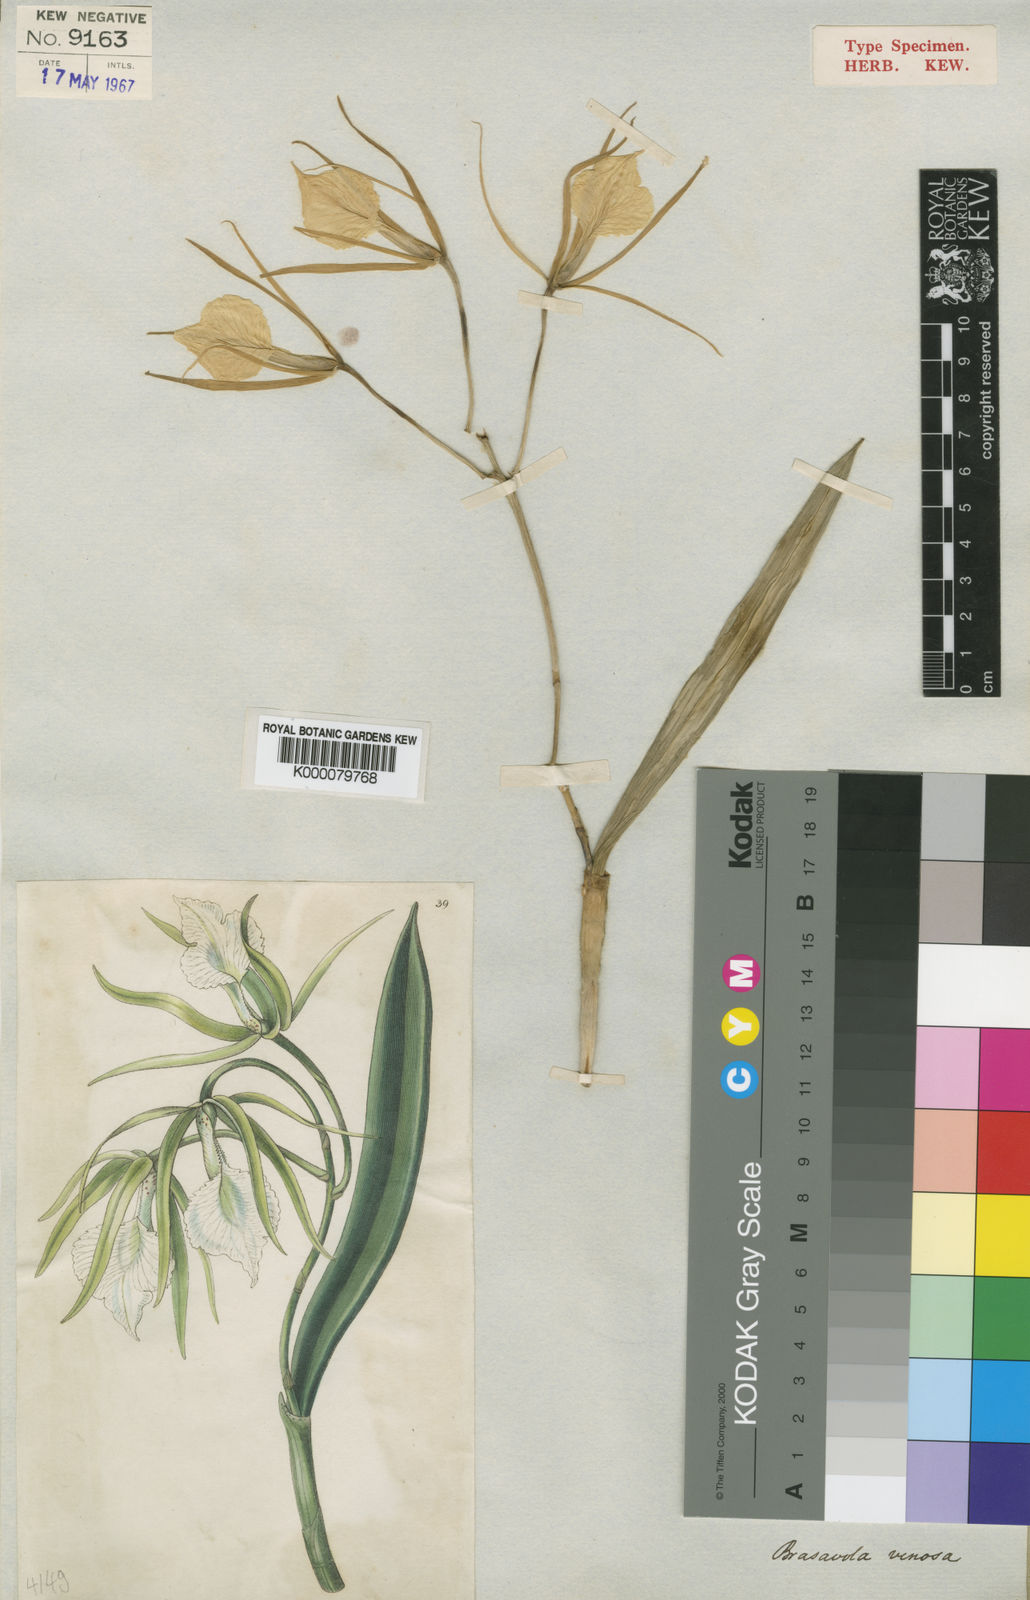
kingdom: Plantae
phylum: Tracheophyta
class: Liliopsida
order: Asparagales
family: Orchidaceae
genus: Brassavola
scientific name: Brassavola nodosa
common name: Lady of the night
